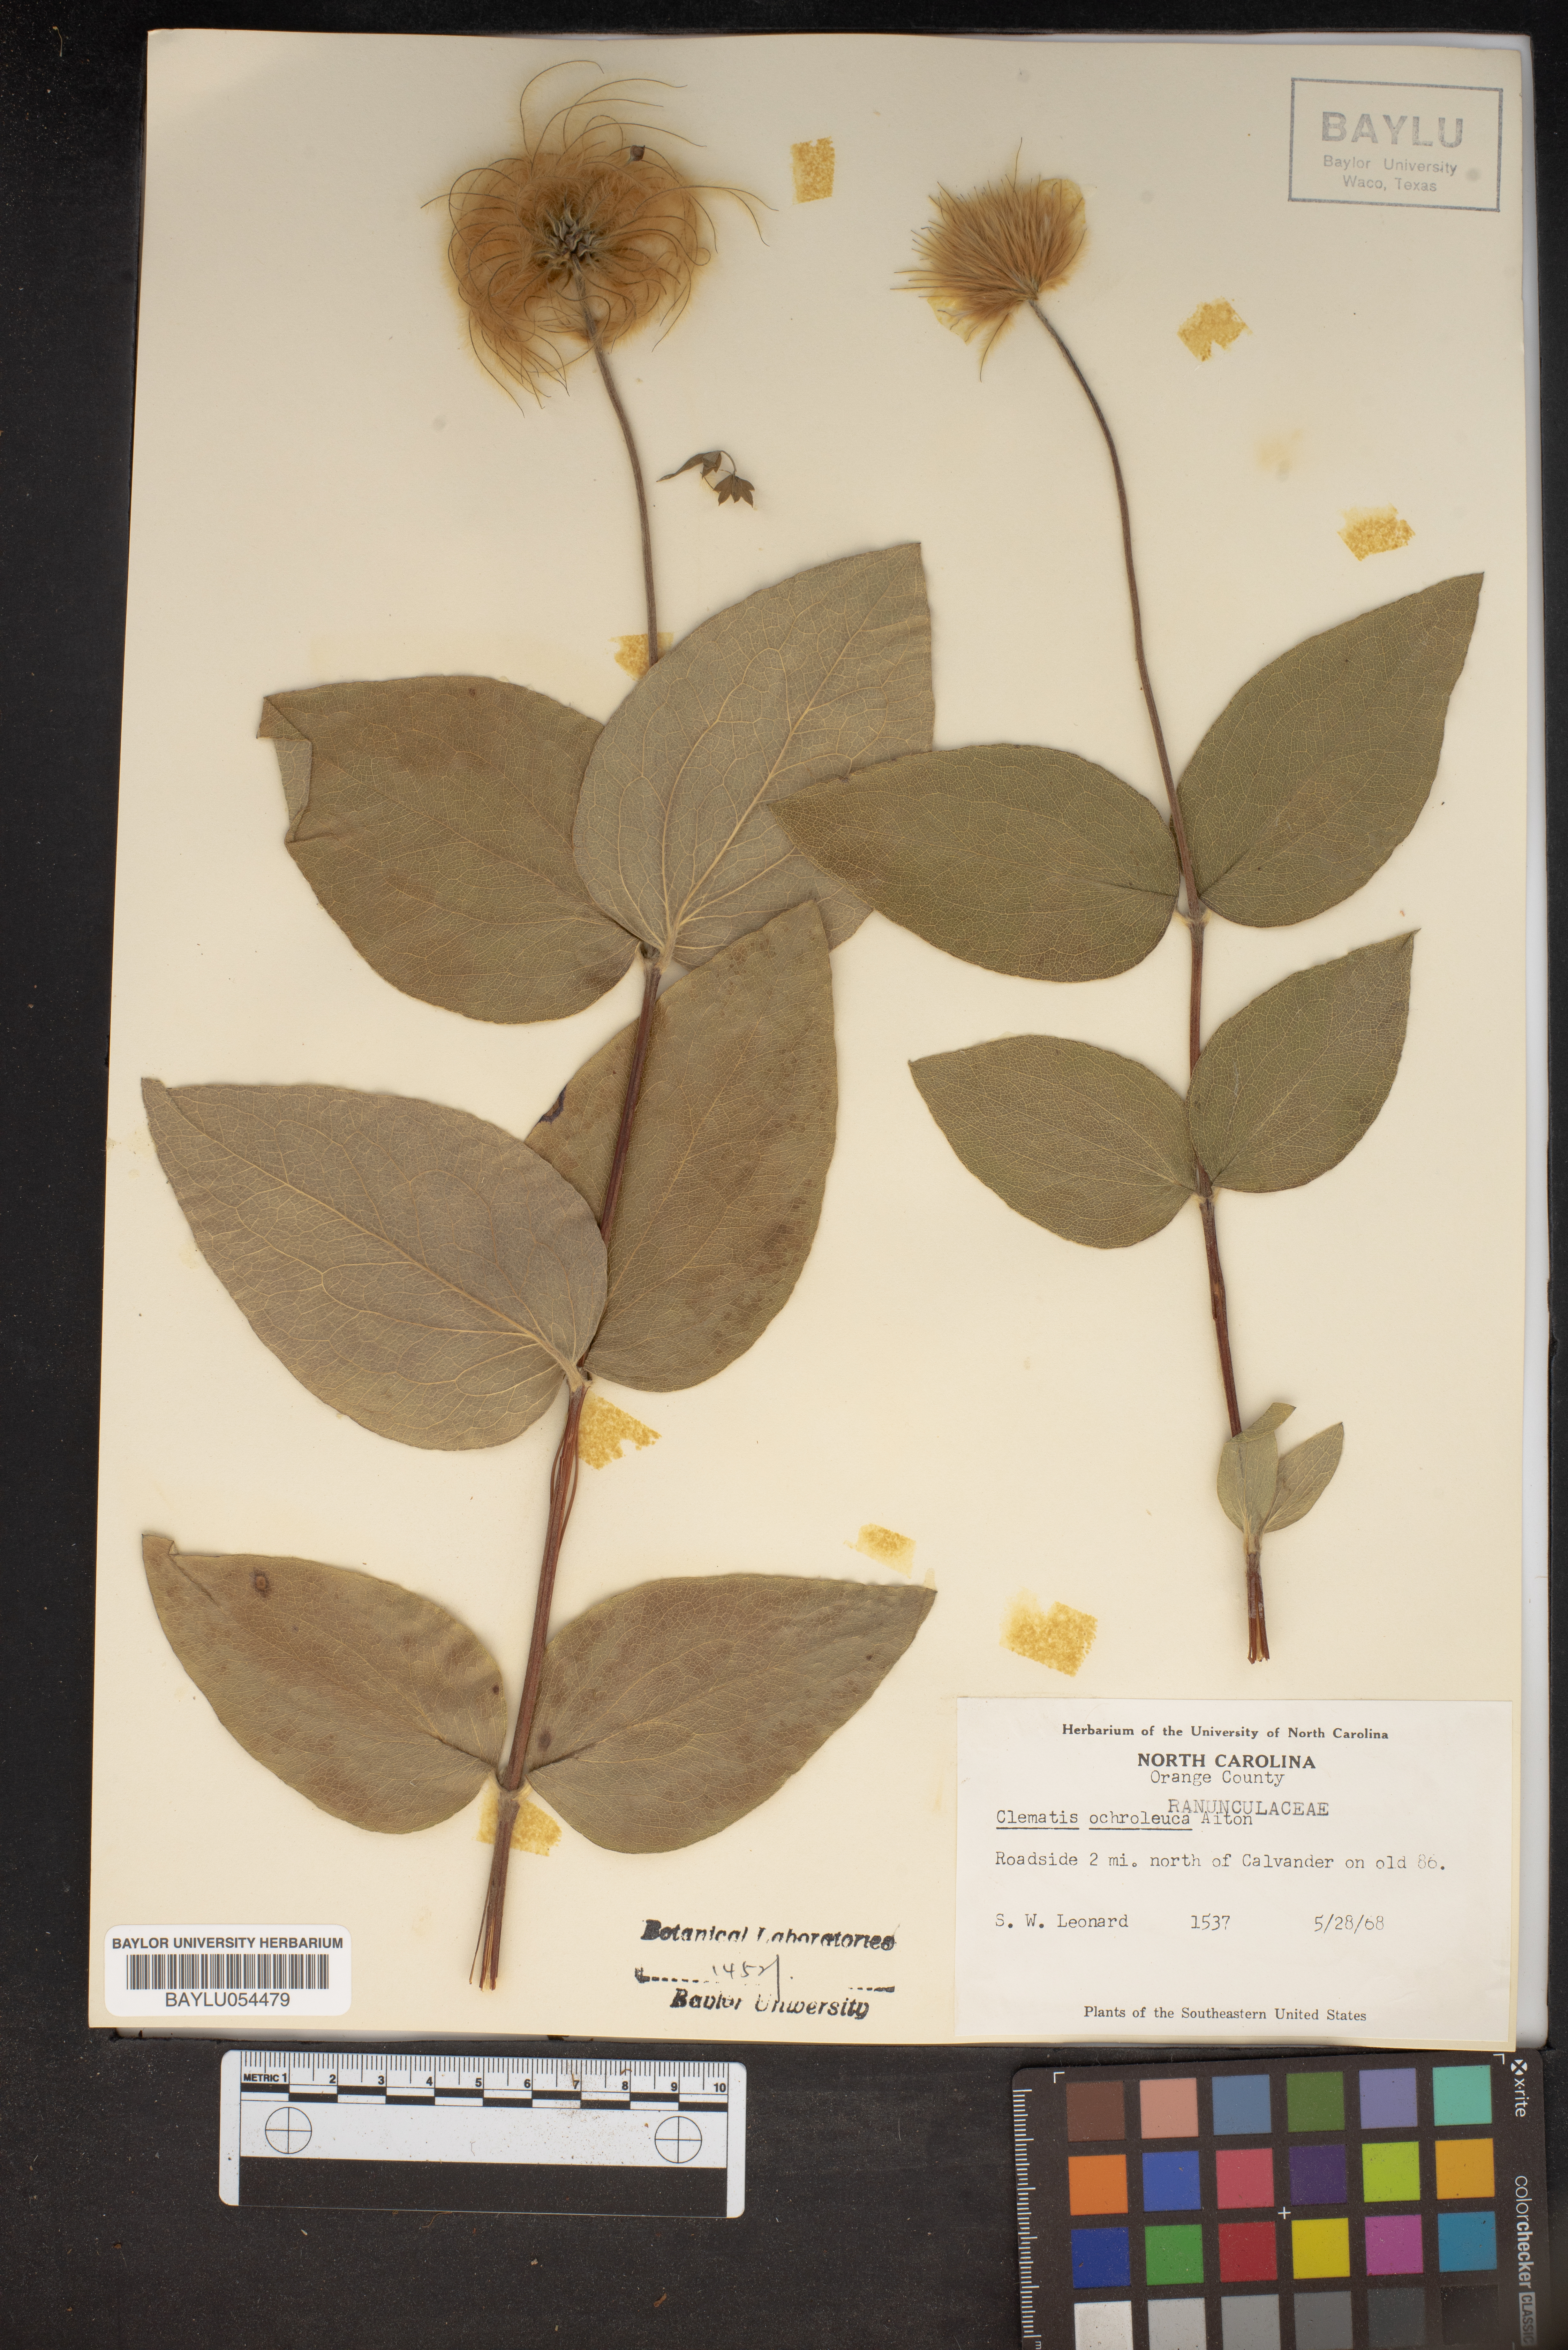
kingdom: Plantae
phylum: Tracheophyta
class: Magnoliopsida
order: Ranunculales
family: Ranunculaceae
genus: Clematis
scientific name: Clematis ochroleuca
